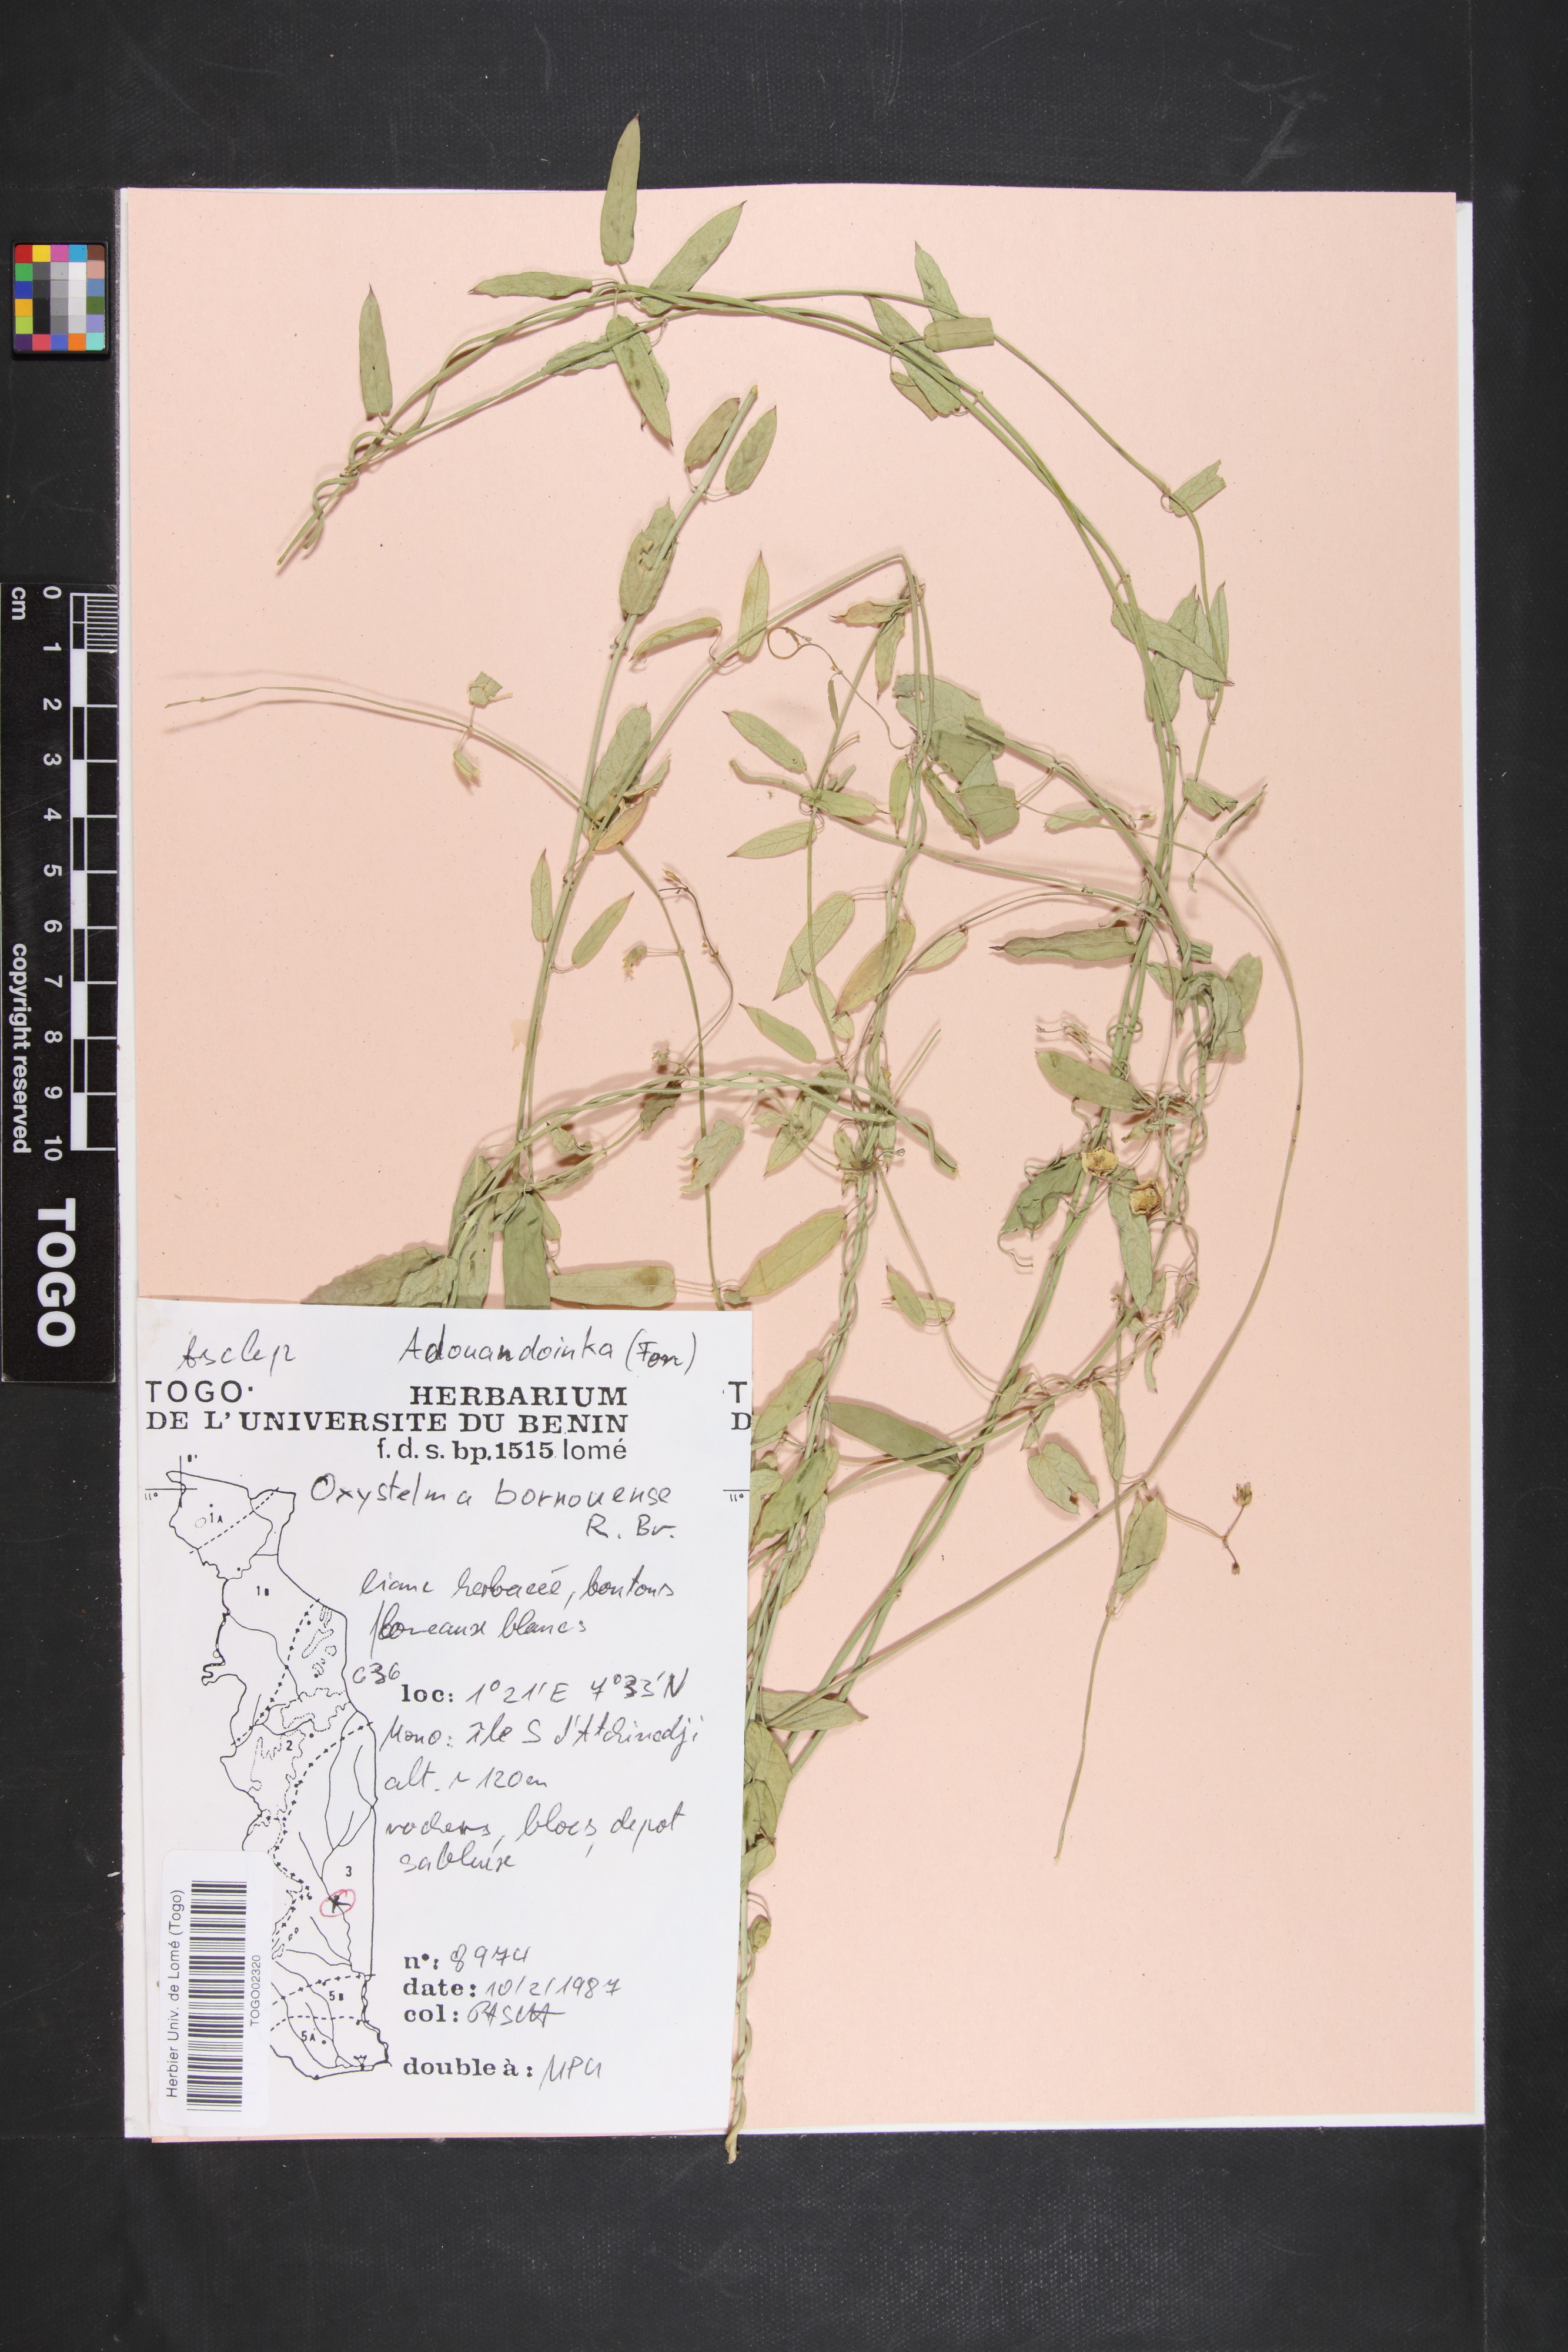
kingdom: Plantae
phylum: Tracheophyta
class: Magnoliopsida
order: Gentianales
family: Apocynaceae
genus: Oxystelma
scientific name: Oxystelma bornouense
